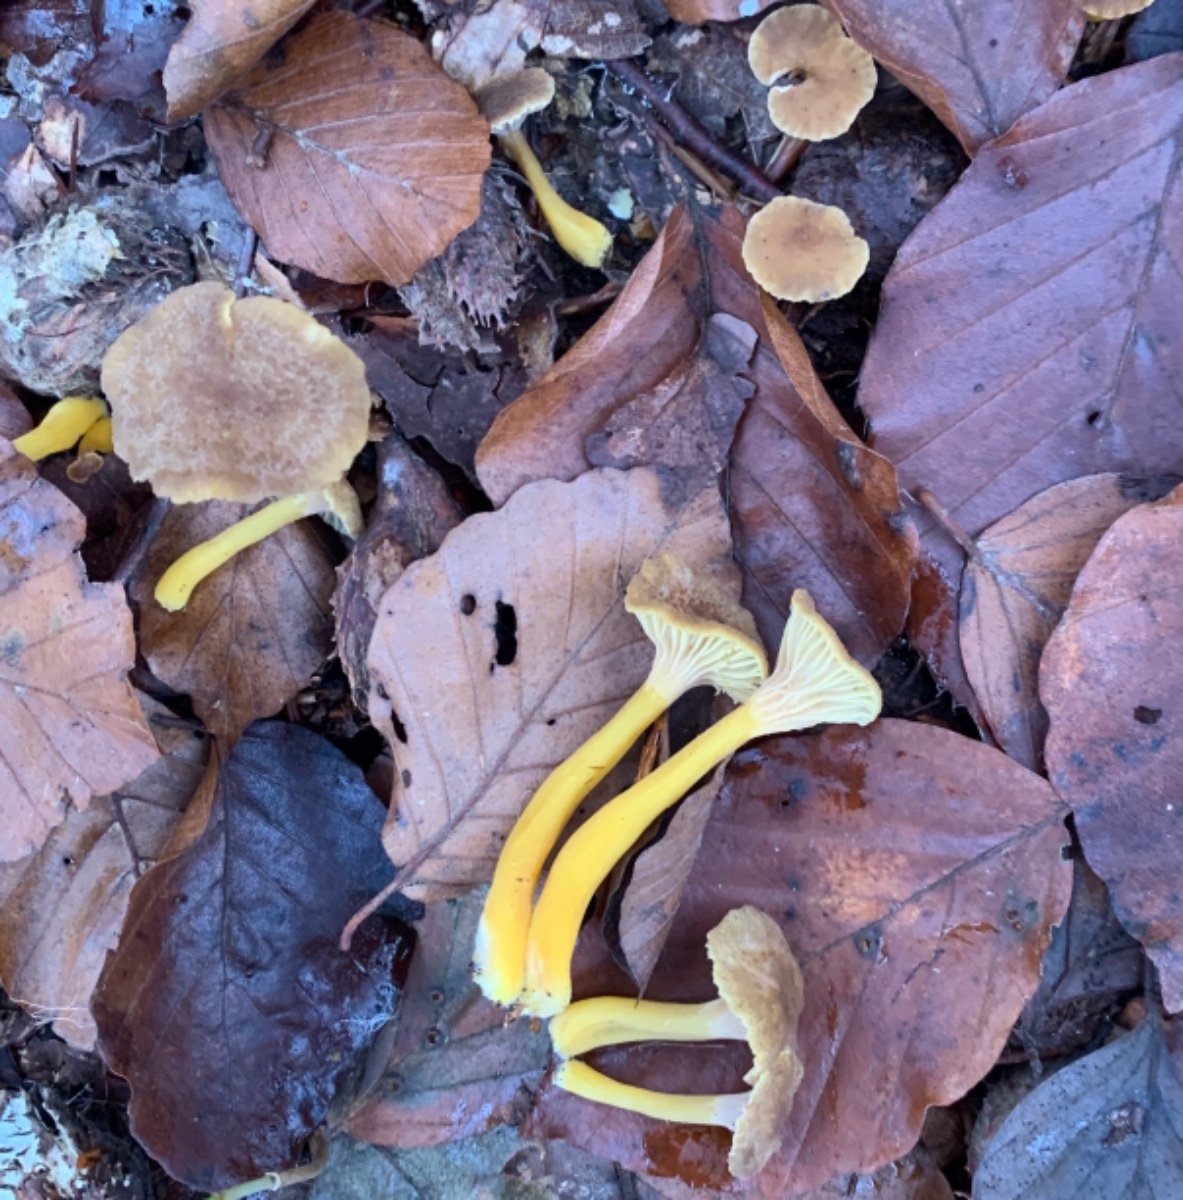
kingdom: Fungi
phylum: Basidiomycota
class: Agaricomycetes
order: Cantharellales
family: Hydnaceae
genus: Craterellus
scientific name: Craterellus tubaeformis
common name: tragt-kantarel
